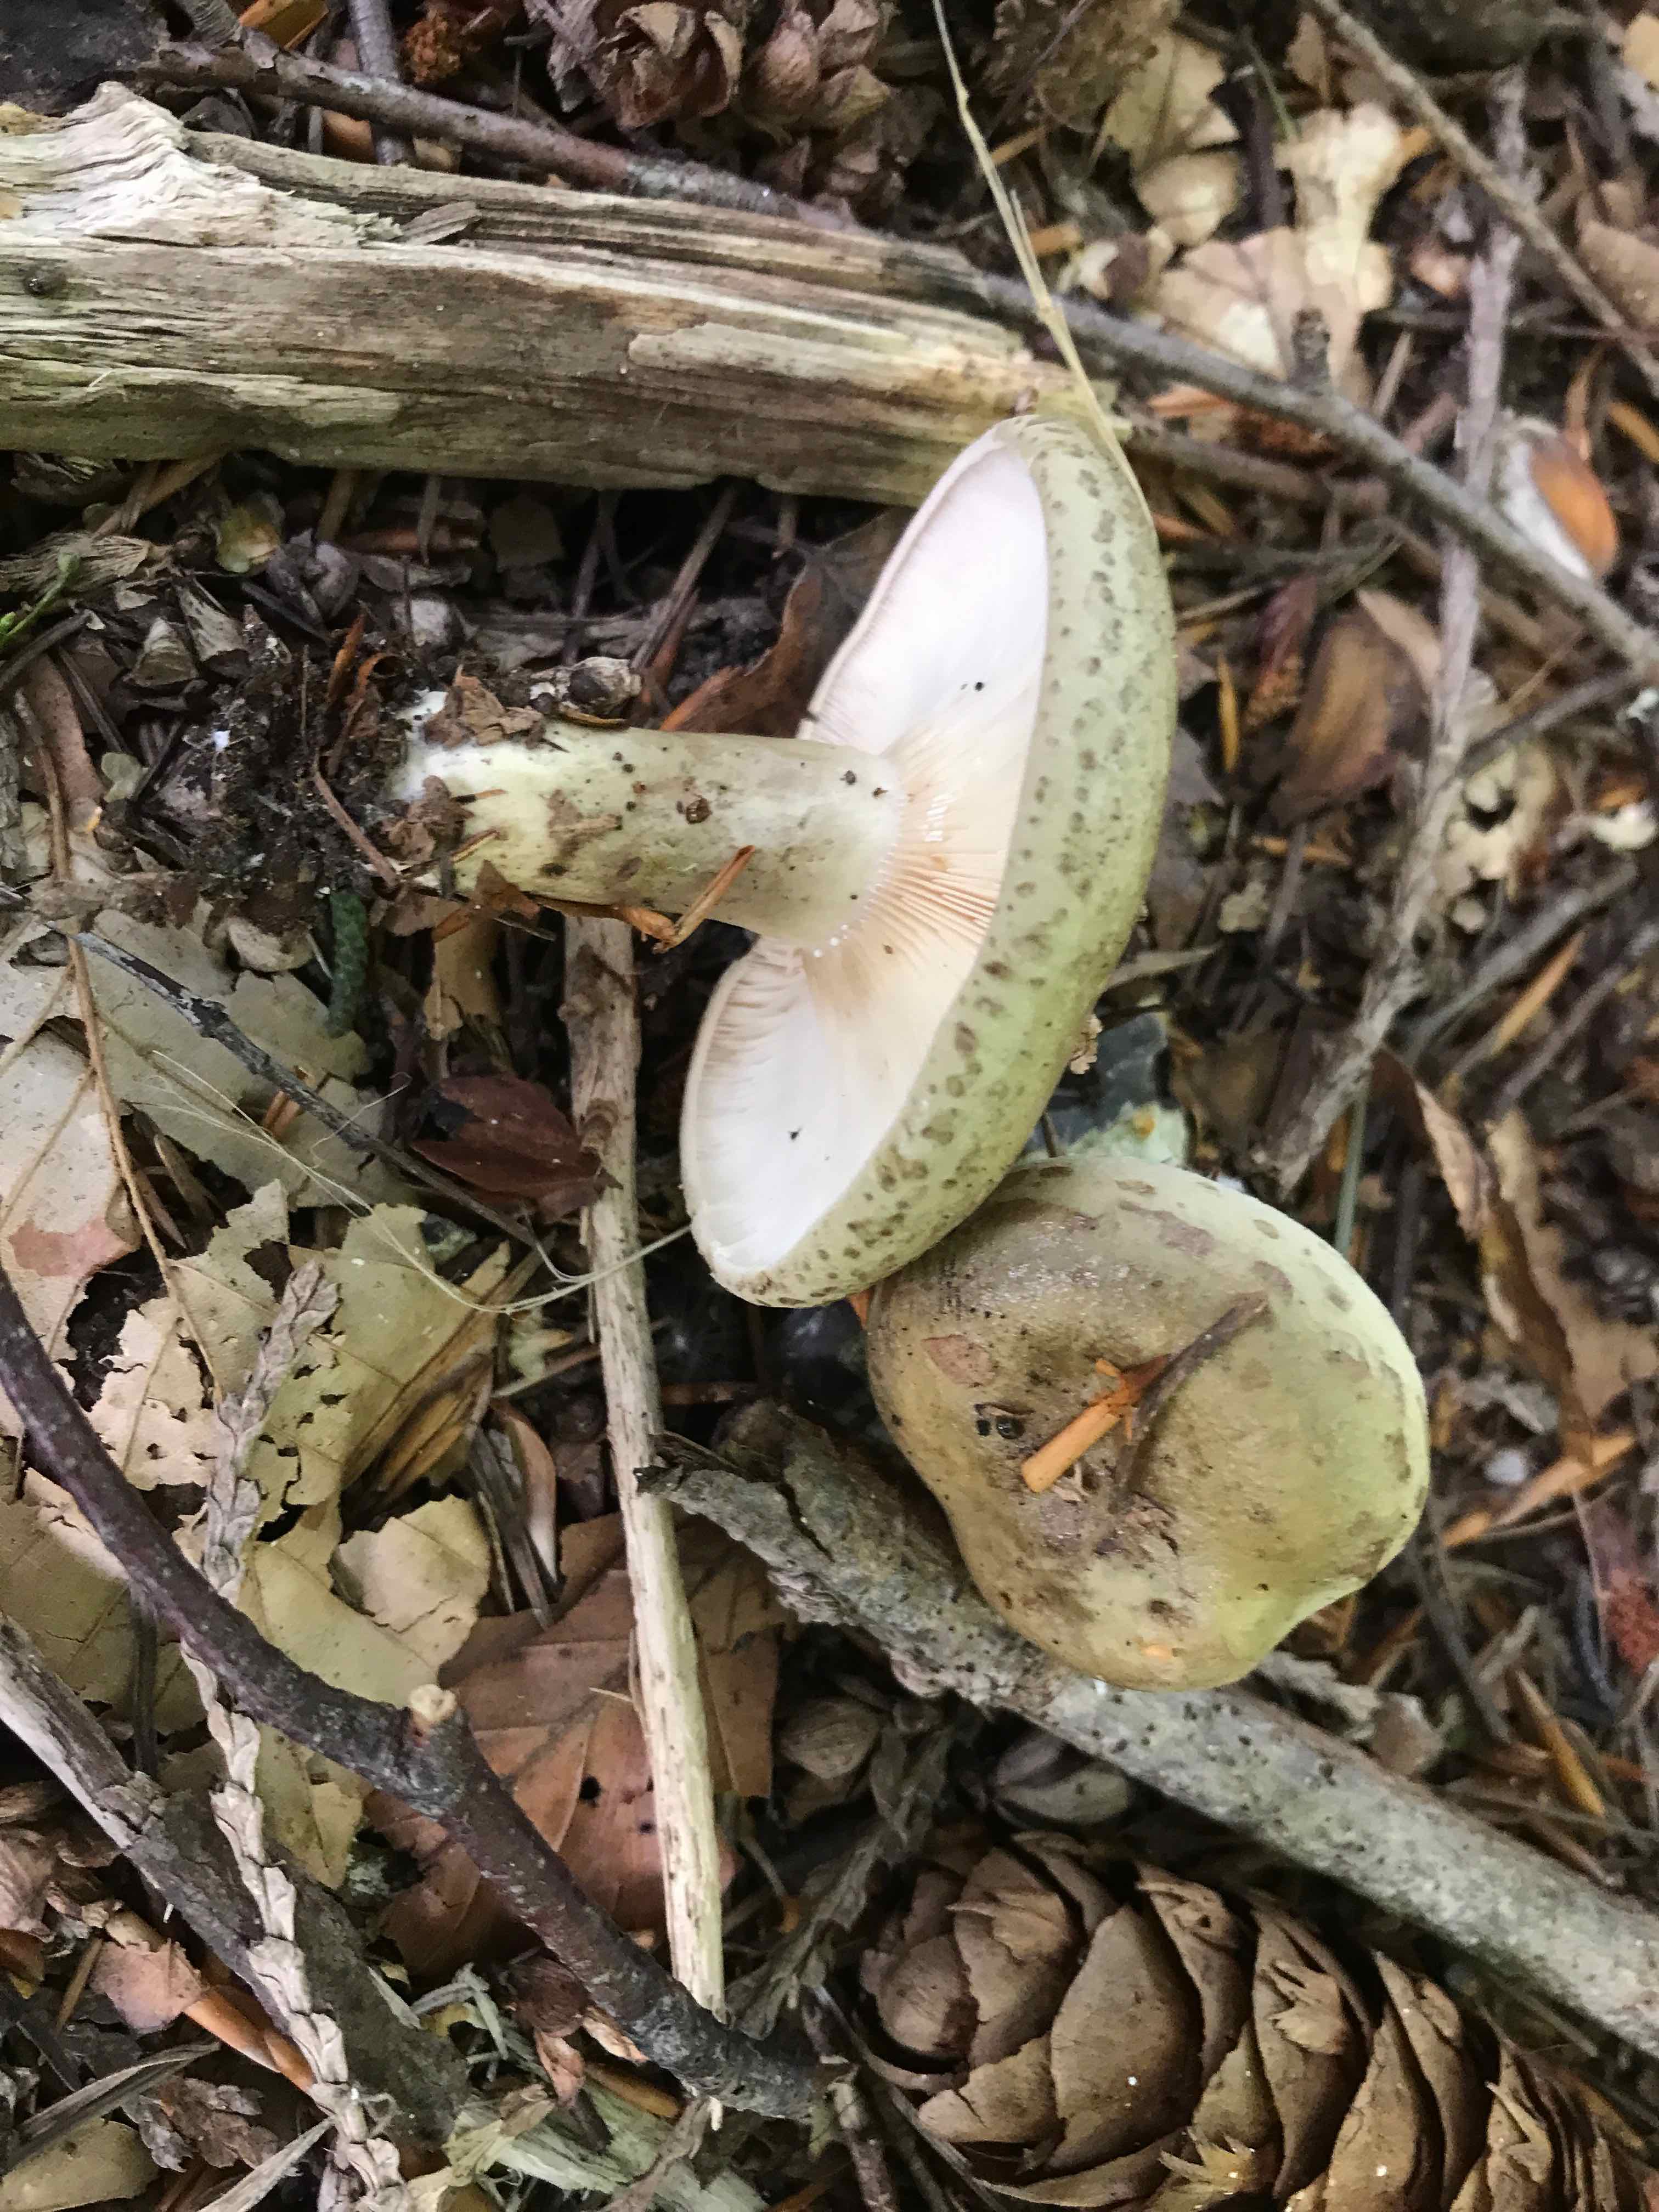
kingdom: Fungi
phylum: Basidiomycota
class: Agaricomycetes
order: Russulales
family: Russulaceae
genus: Lactarius
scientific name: Lactarius blennius
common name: dråbeplettet mælkehat
